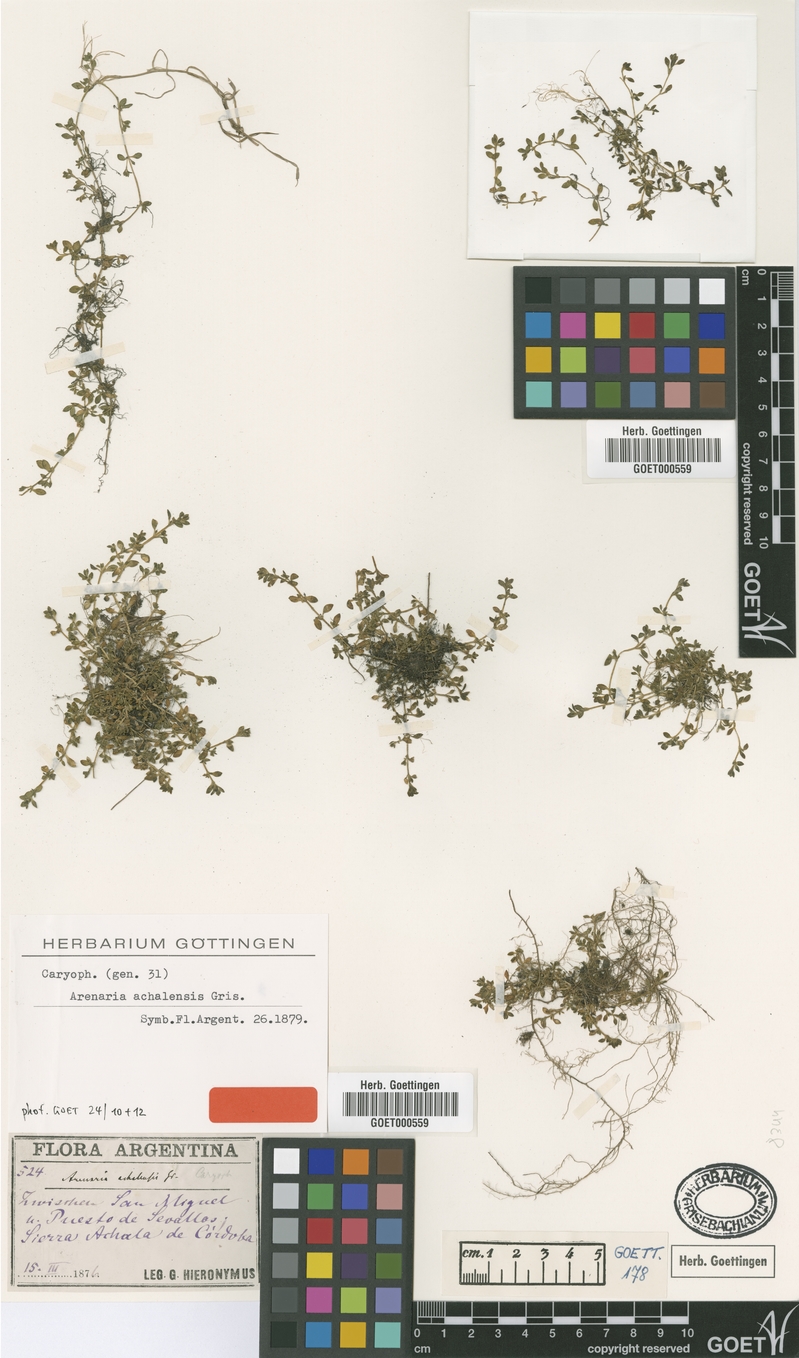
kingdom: Plantae
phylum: Tracheophyta
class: Magnoliopsida
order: Caryophyllales
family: Caryophyllaceae
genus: Arenaria
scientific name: Arenaria achalensis
